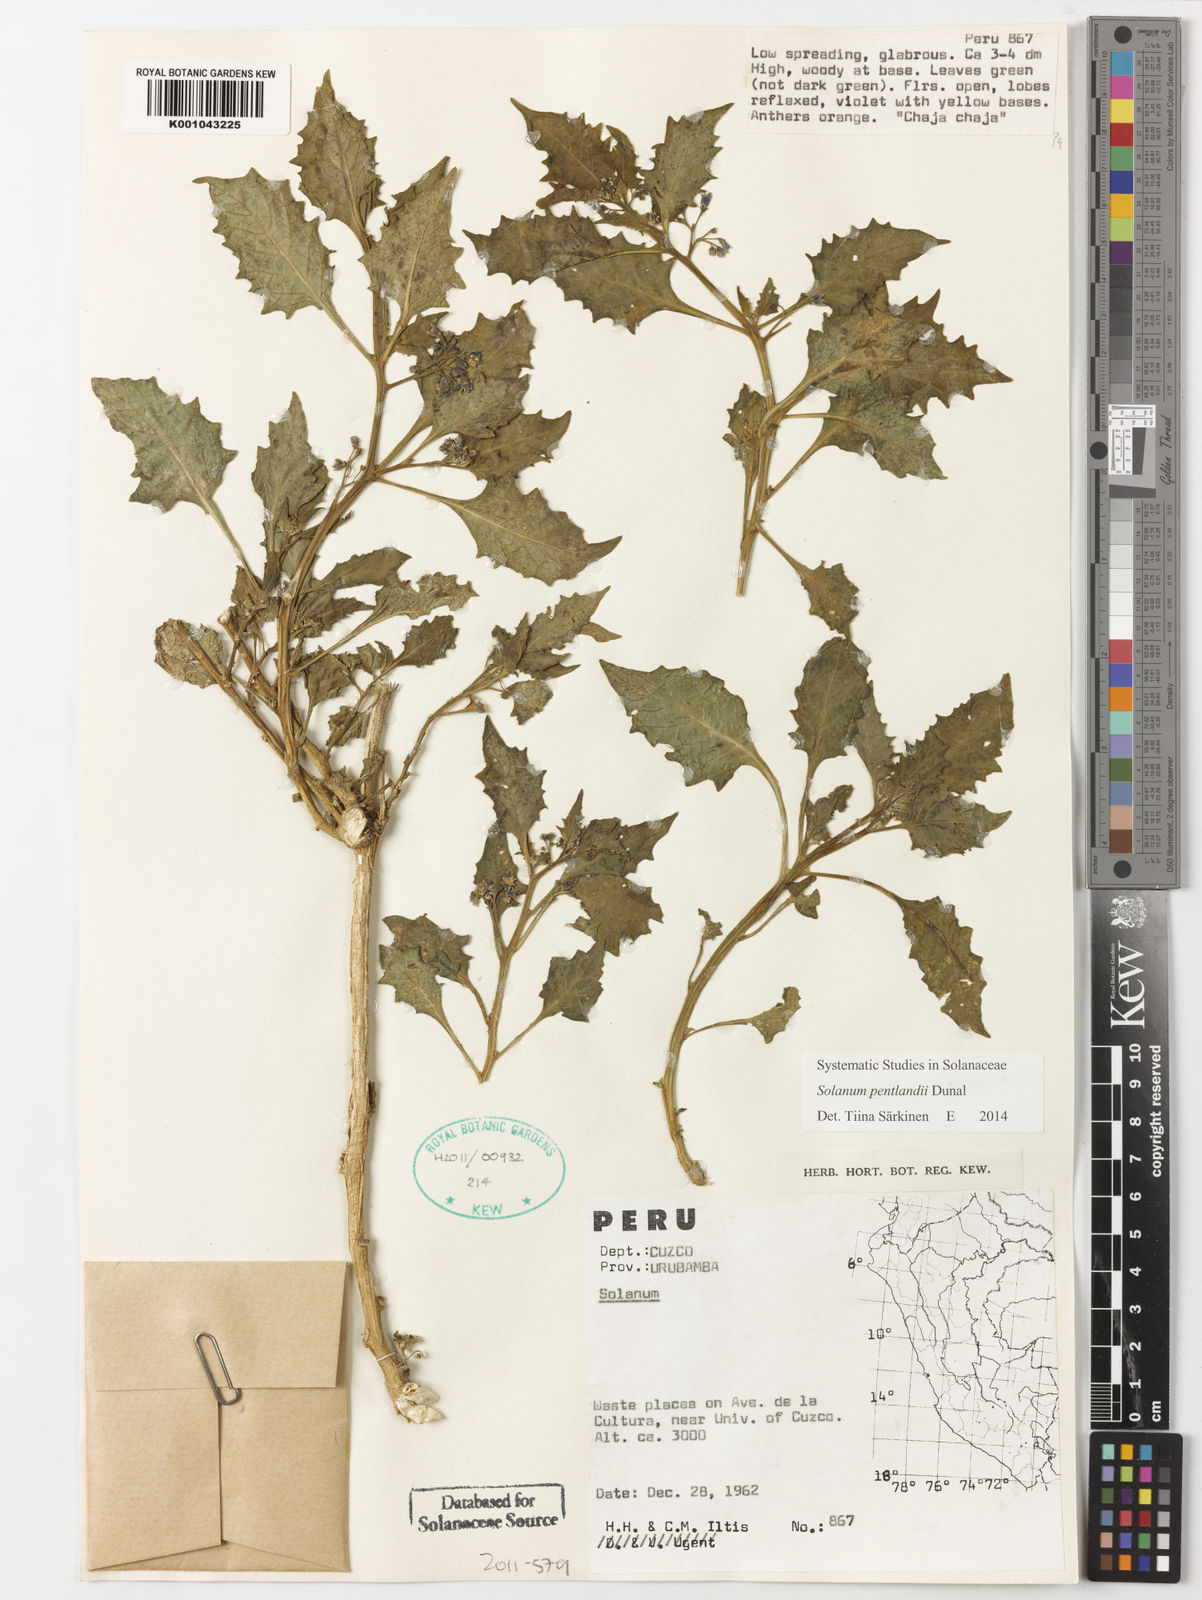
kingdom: Plantae
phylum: Tracheophyta
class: Magnoliopsida
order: Solanales
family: Solanaceae
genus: Solanum
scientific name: Solanum pentlandii
